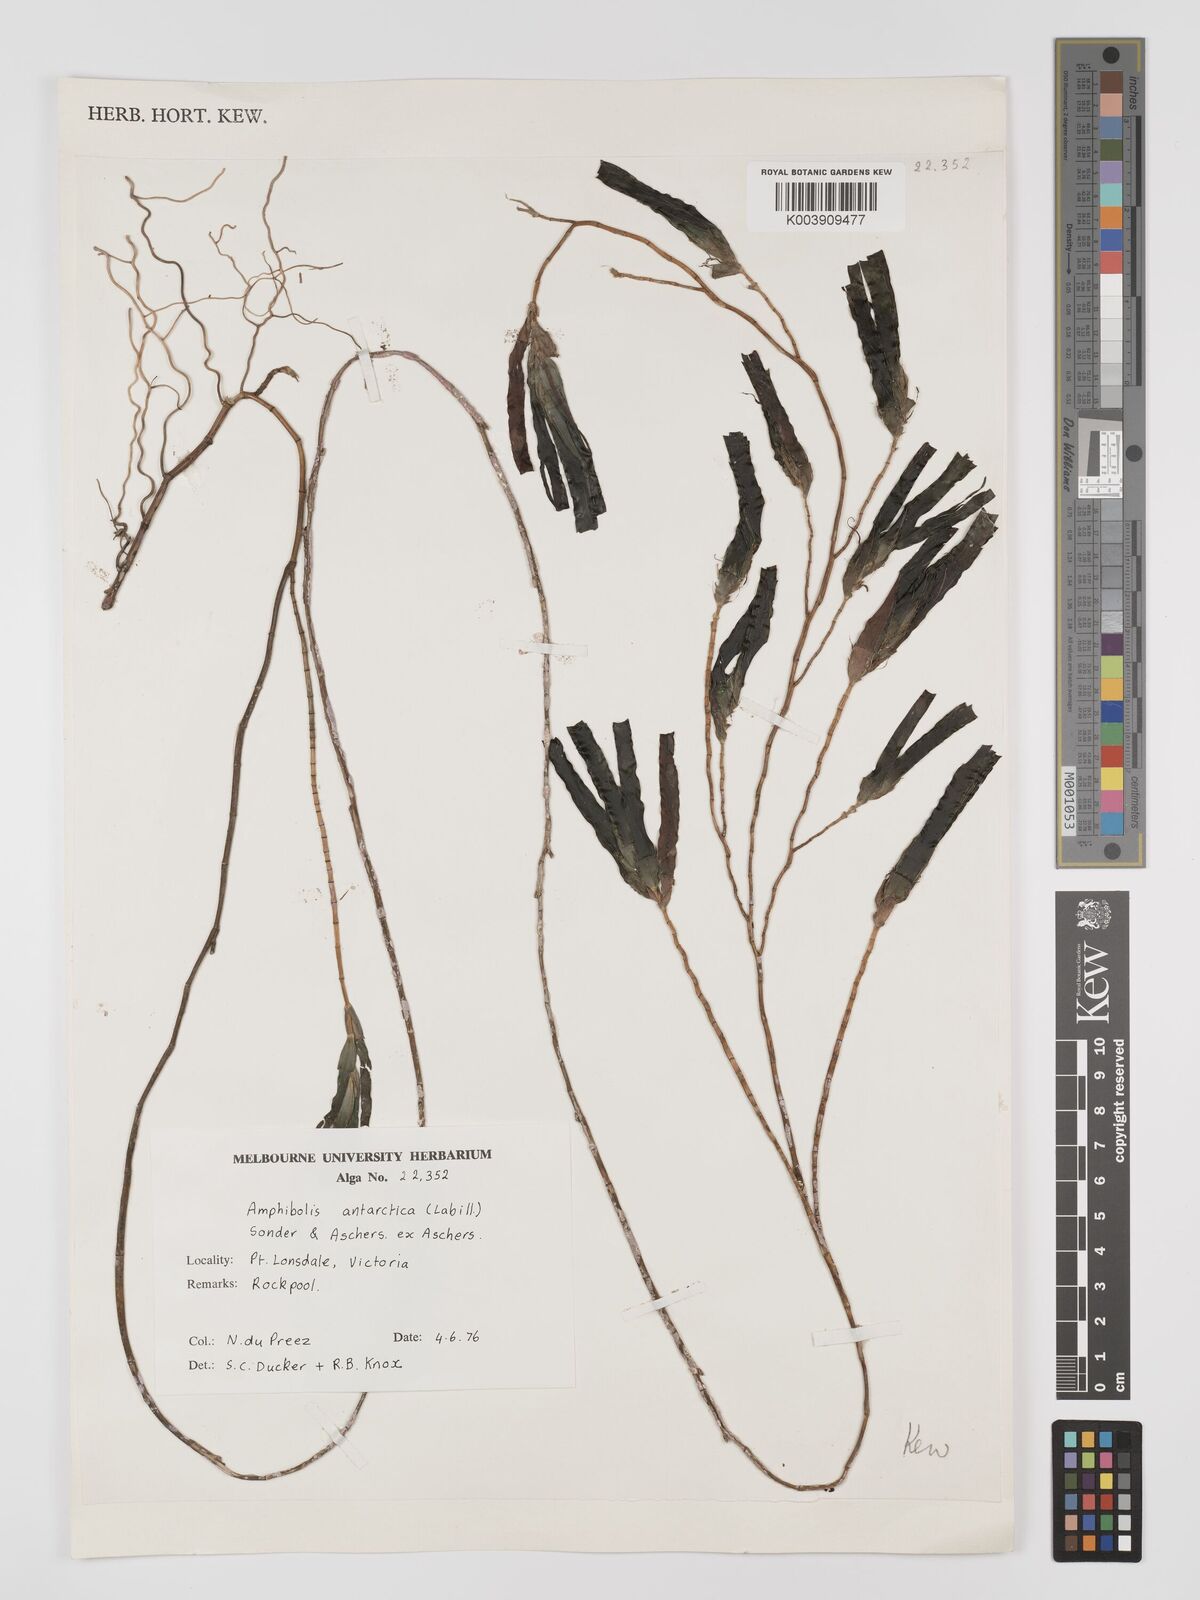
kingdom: Plantae
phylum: Tracheophyta
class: Liliopsida
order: Alismatales
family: Cymodoceaceae
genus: Amphibolis
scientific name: Amphibolis antarctica
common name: Species code: aa
